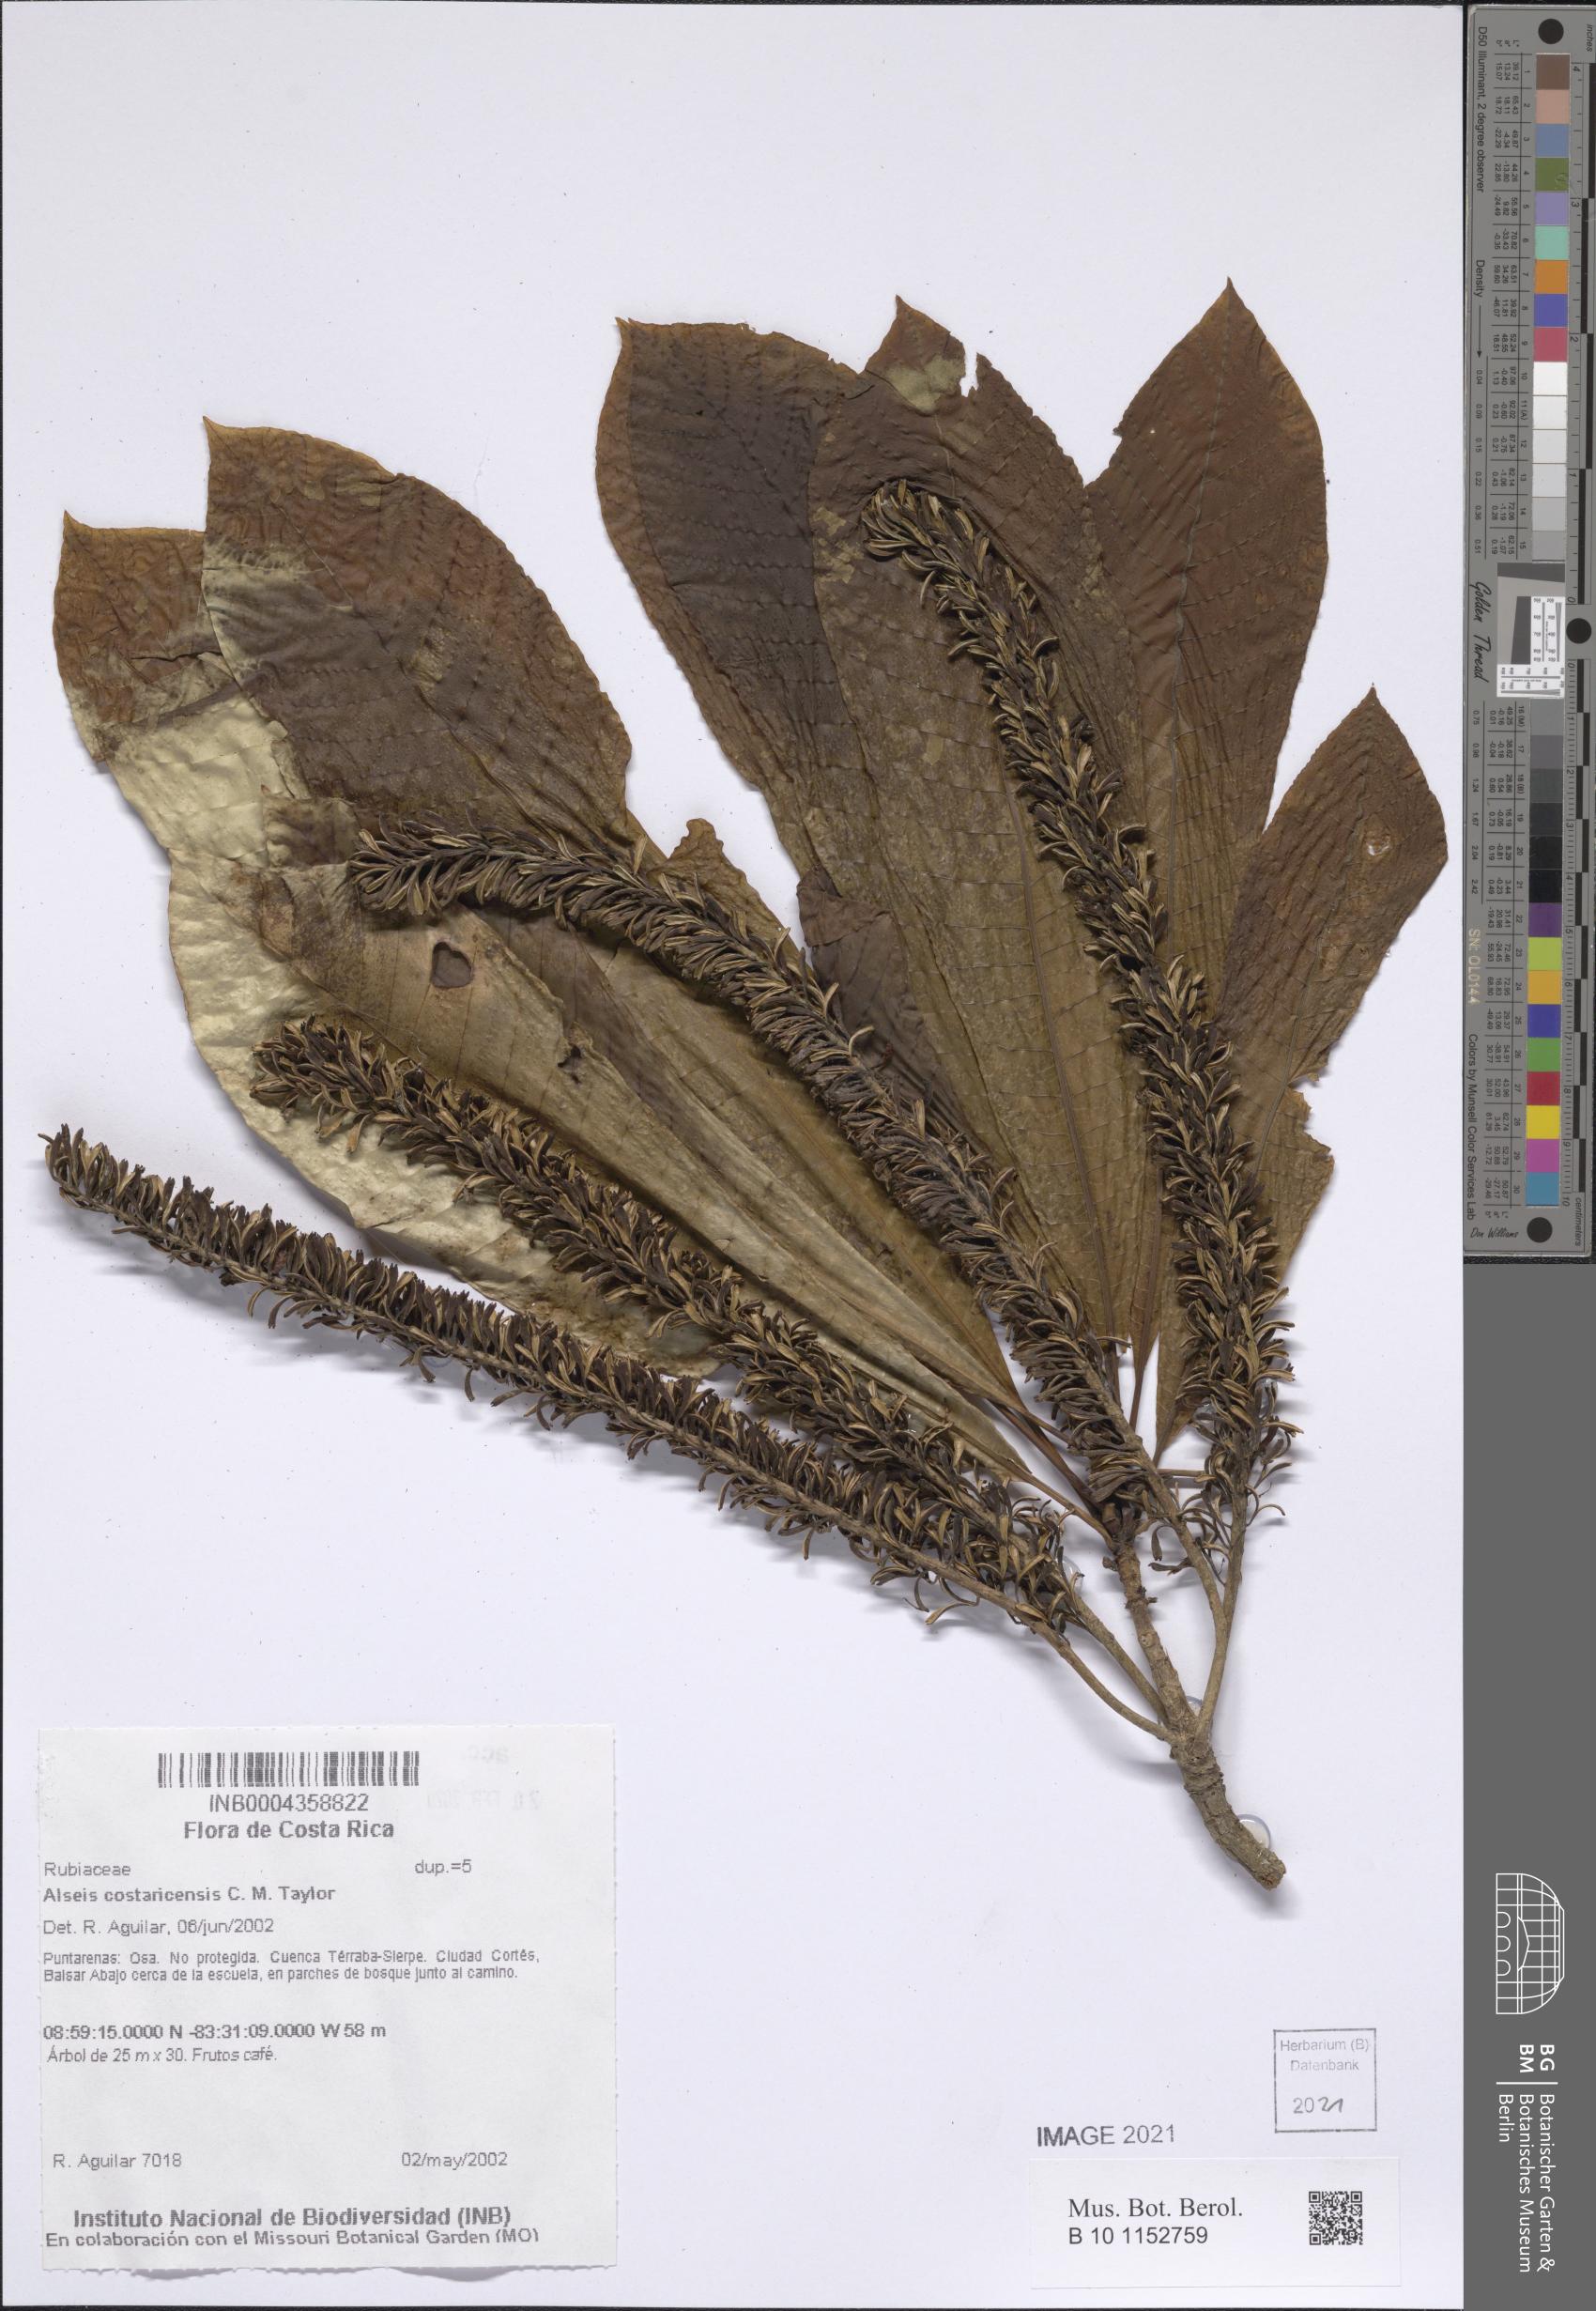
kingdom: Plantae
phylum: Tracheophyta
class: Magnoliopsida
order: Gentianales
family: Rubiaceae
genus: Alseis
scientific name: Alseis costaricensis
